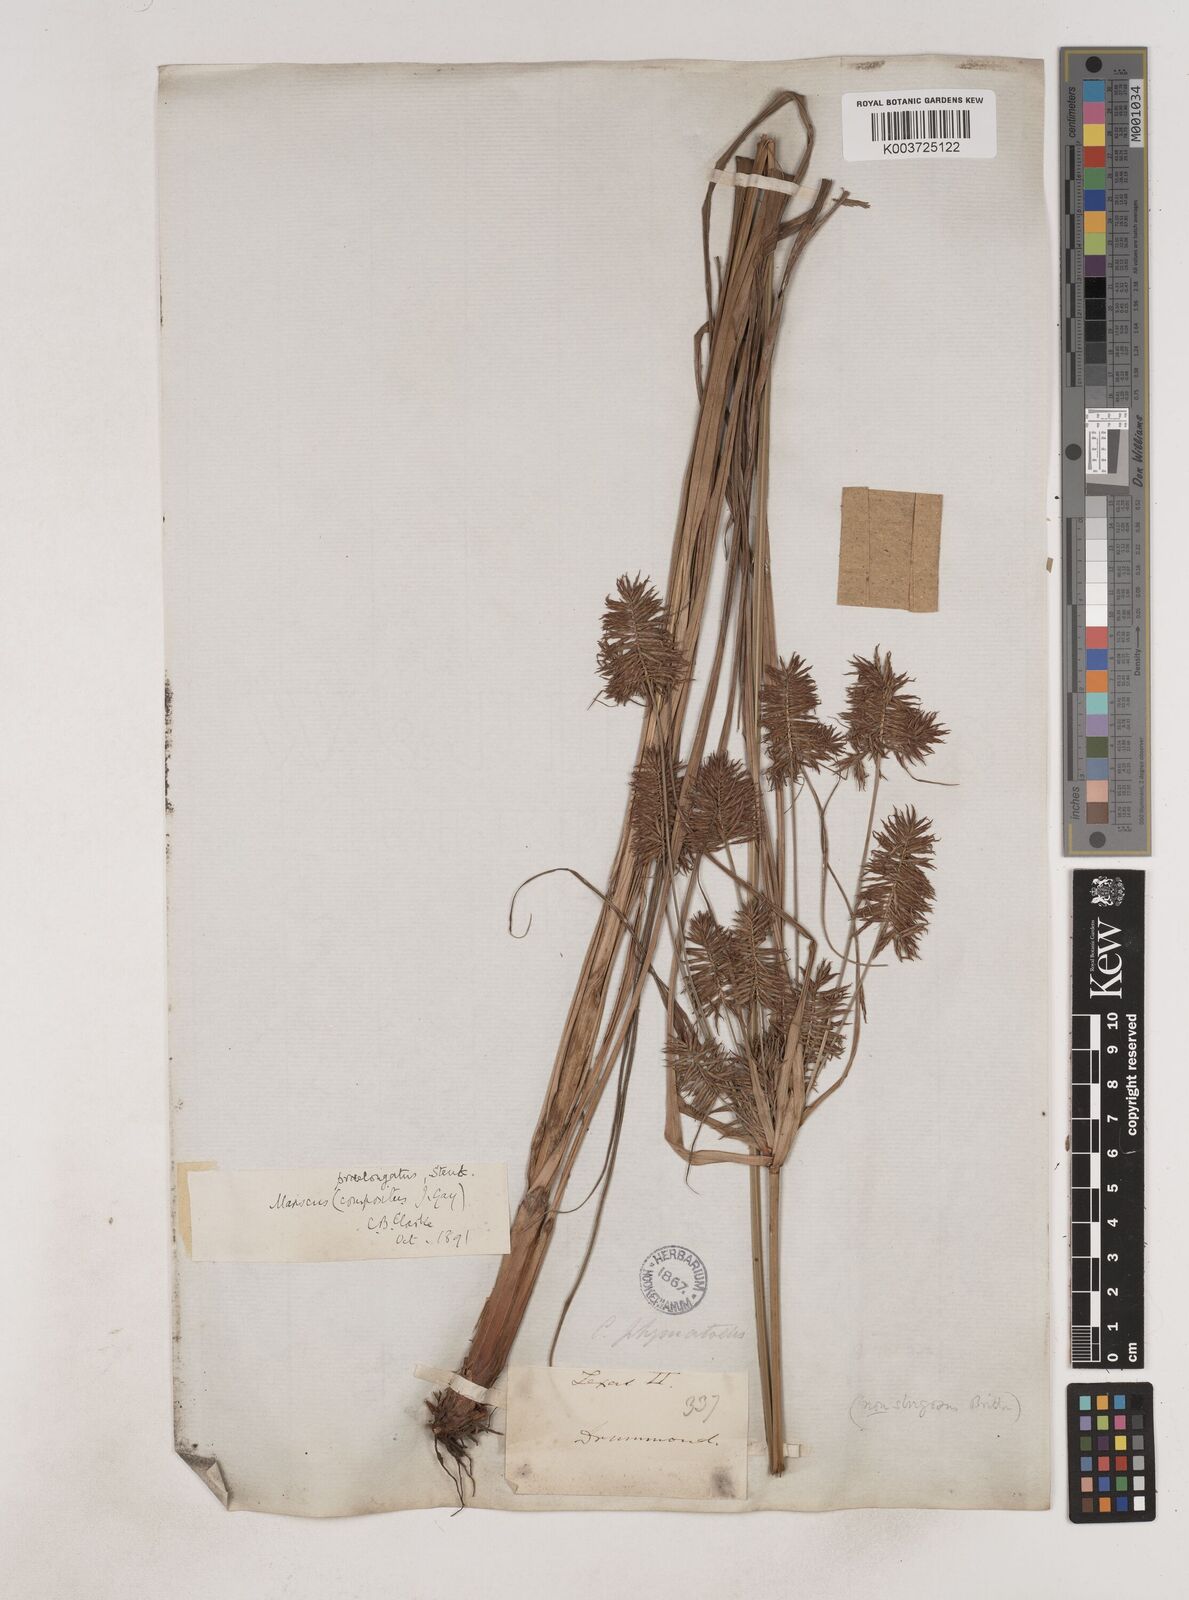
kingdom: Plantae
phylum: Tracheophyta
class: Liliopsida
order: Poales
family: Cyperaceae
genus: Cyperus
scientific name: Cyperus strigosus
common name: False nutsedge
